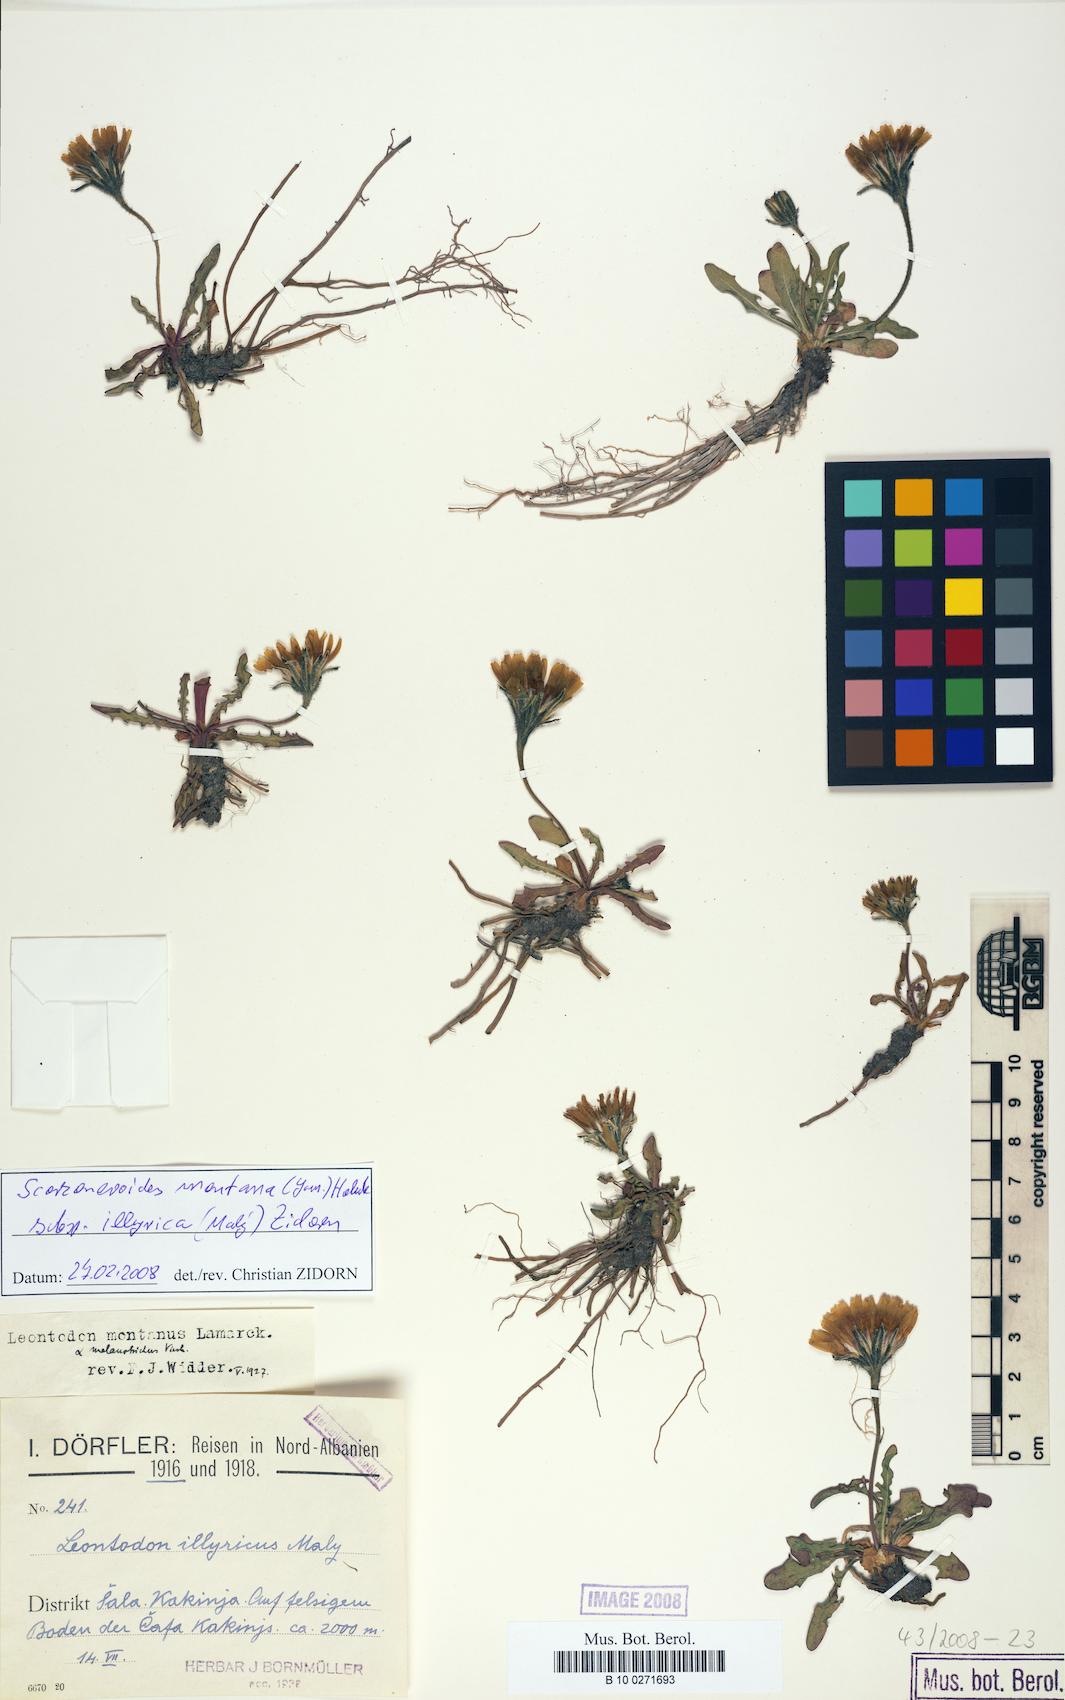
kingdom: Plantae
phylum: Tracheophyta
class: Magnoliopsida
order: Asterales
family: Asteraceae
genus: Scorzoneroides
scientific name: Scorzoneroides montana
